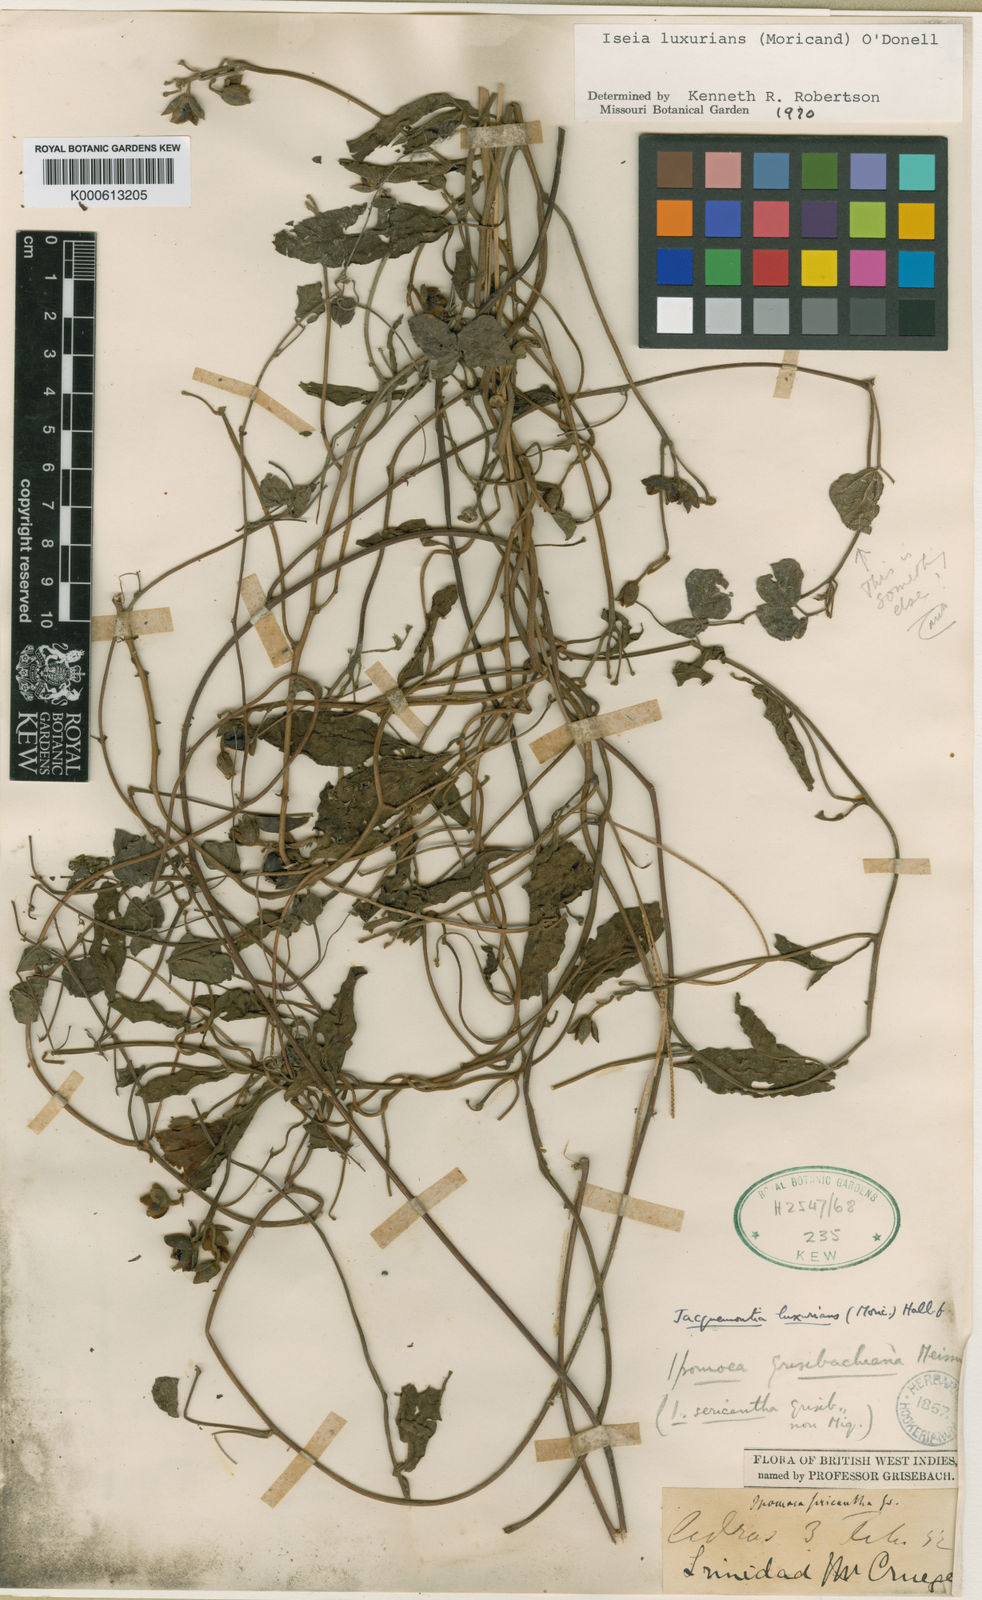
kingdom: Plantae
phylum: Tracheophyta
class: Magnoliopsida
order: Solanales
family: Convolvulaceae
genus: Aniseia
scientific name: Aniseia luxurians
